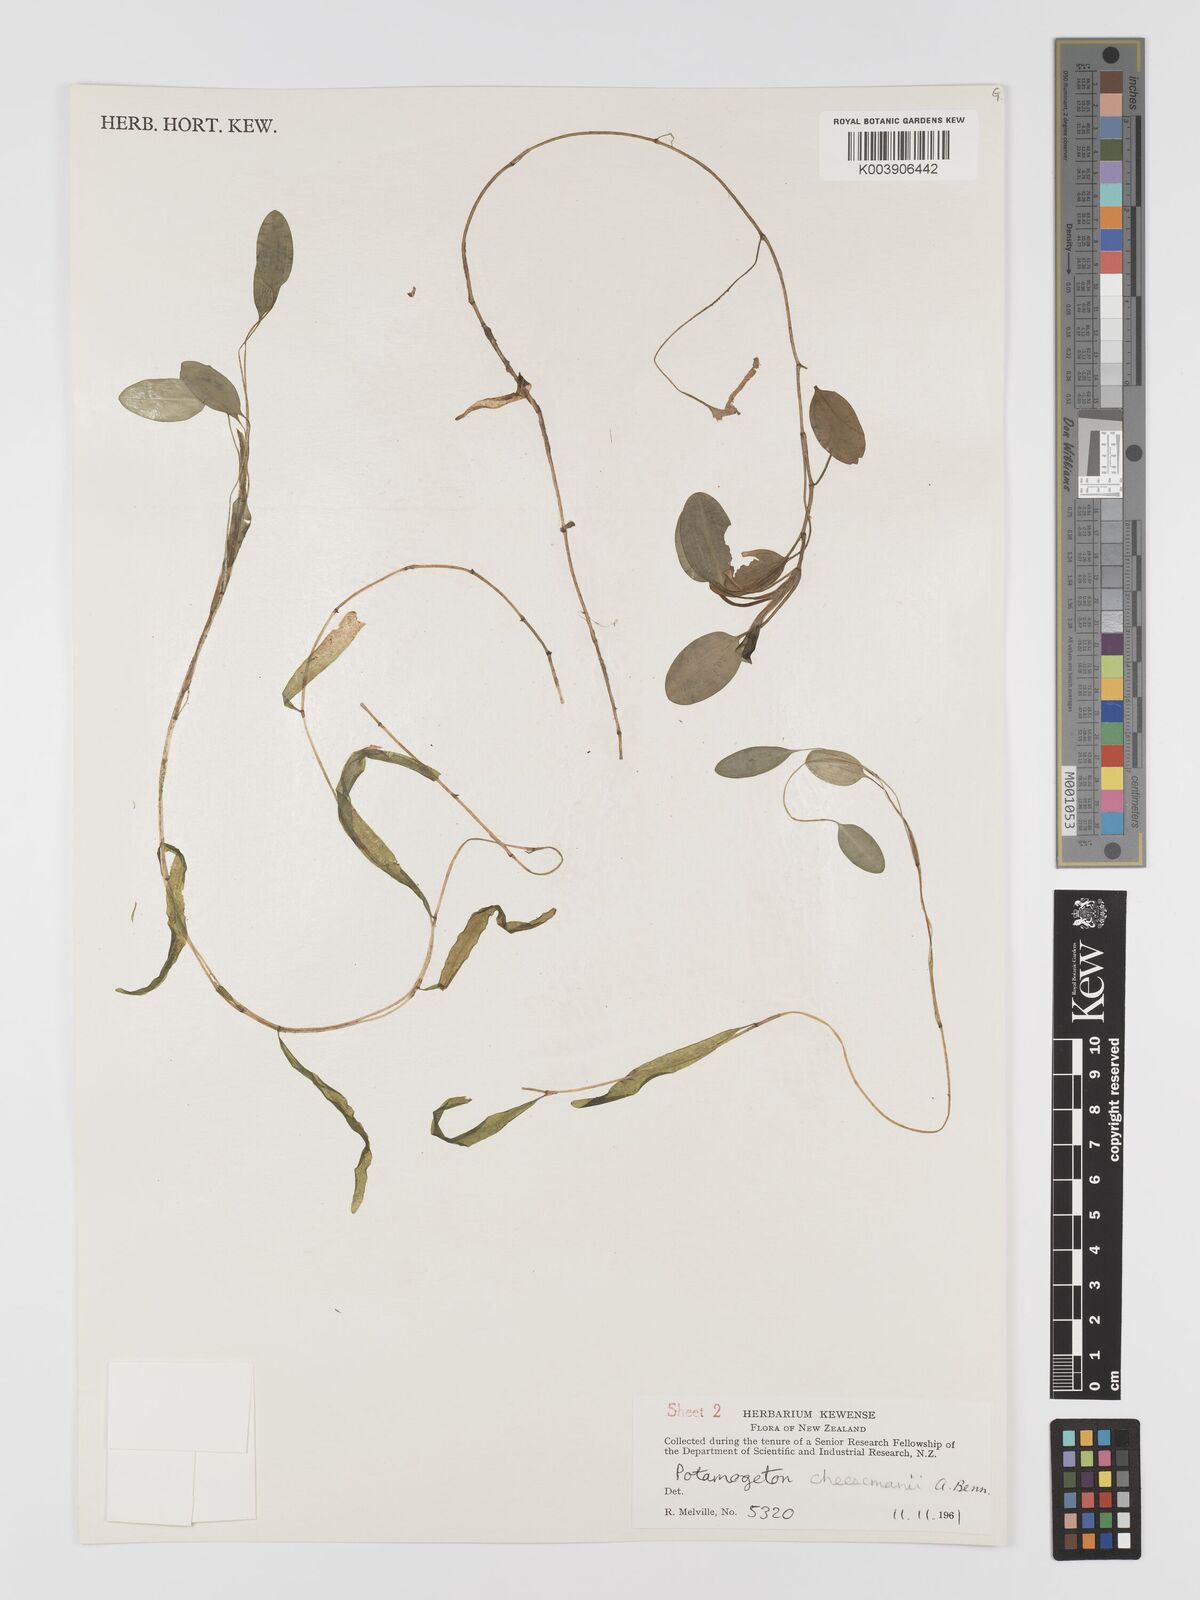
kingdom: Plantae
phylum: Tracheophyta
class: Liliopsida
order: Alismatales
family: Potamogetonaceae
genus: Potamogeton
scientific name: Potamogeton cheesemanii
